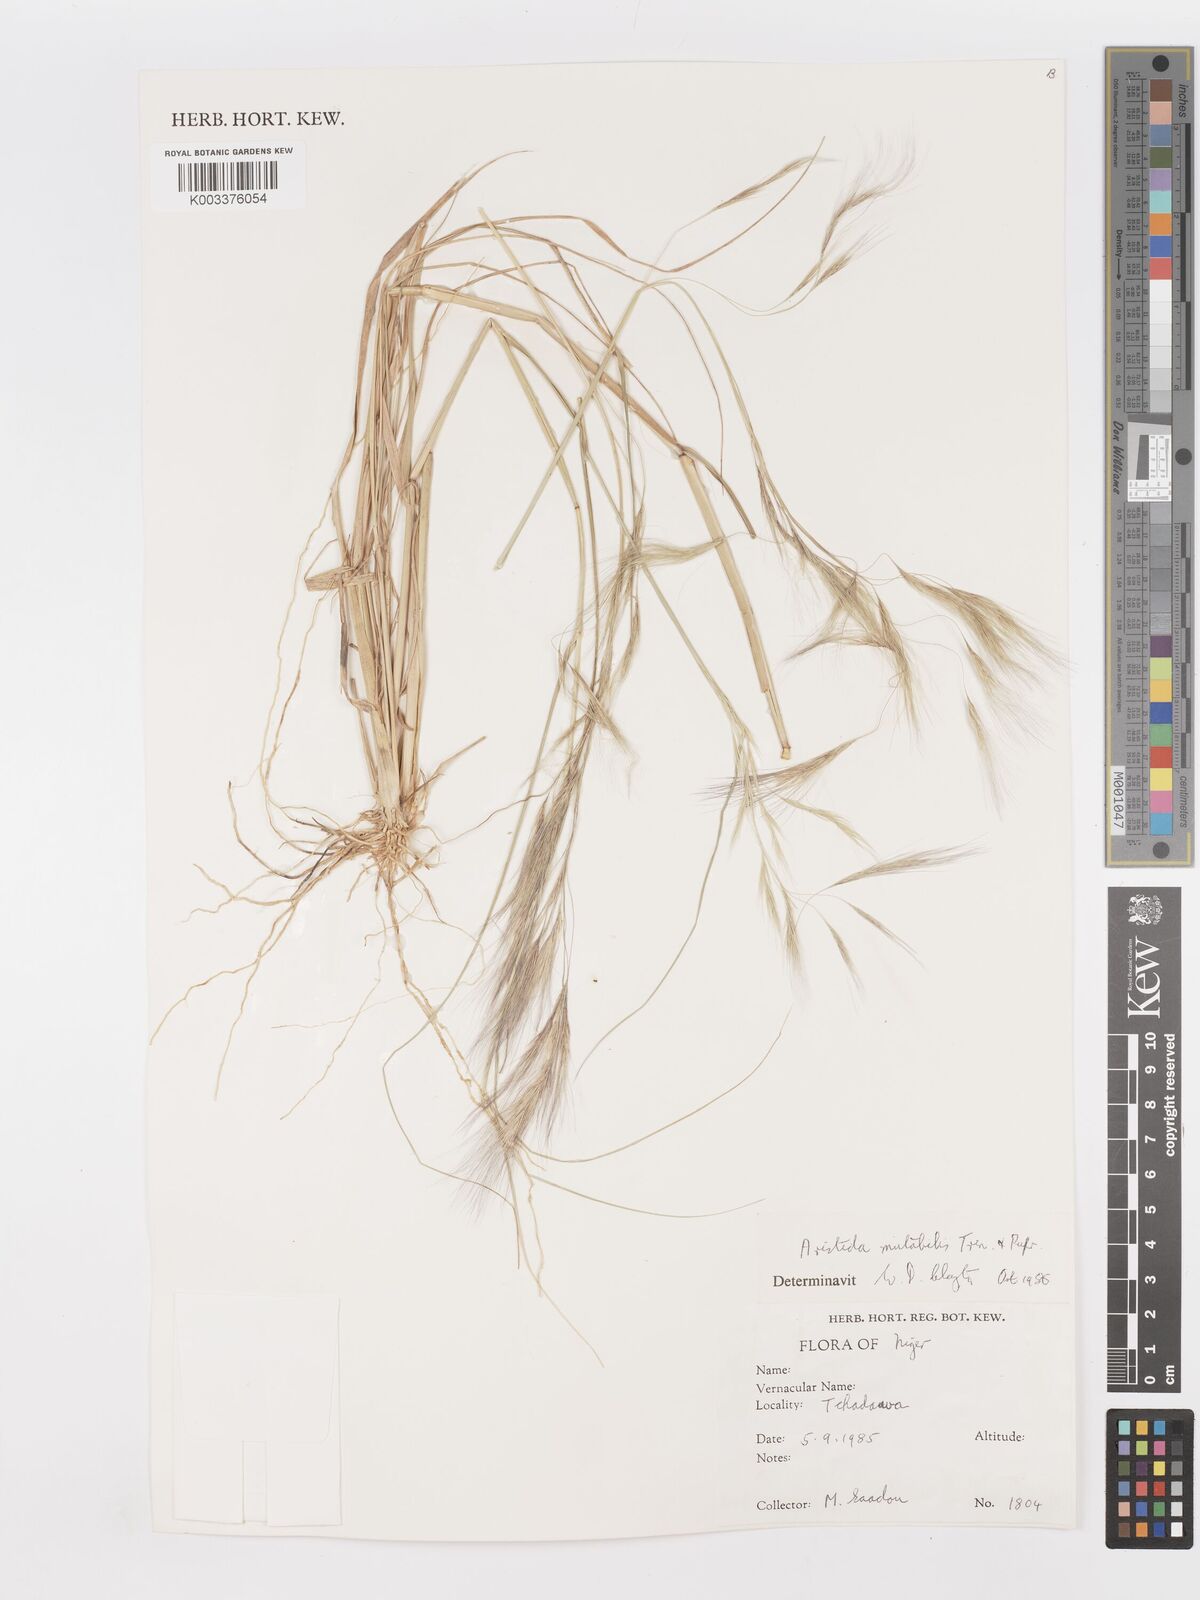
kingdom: Plantae
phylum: Tracheophyta
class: Liliopsida
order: Poales
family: Poaceae
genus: Aristida
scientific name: Aristida mutabilis
